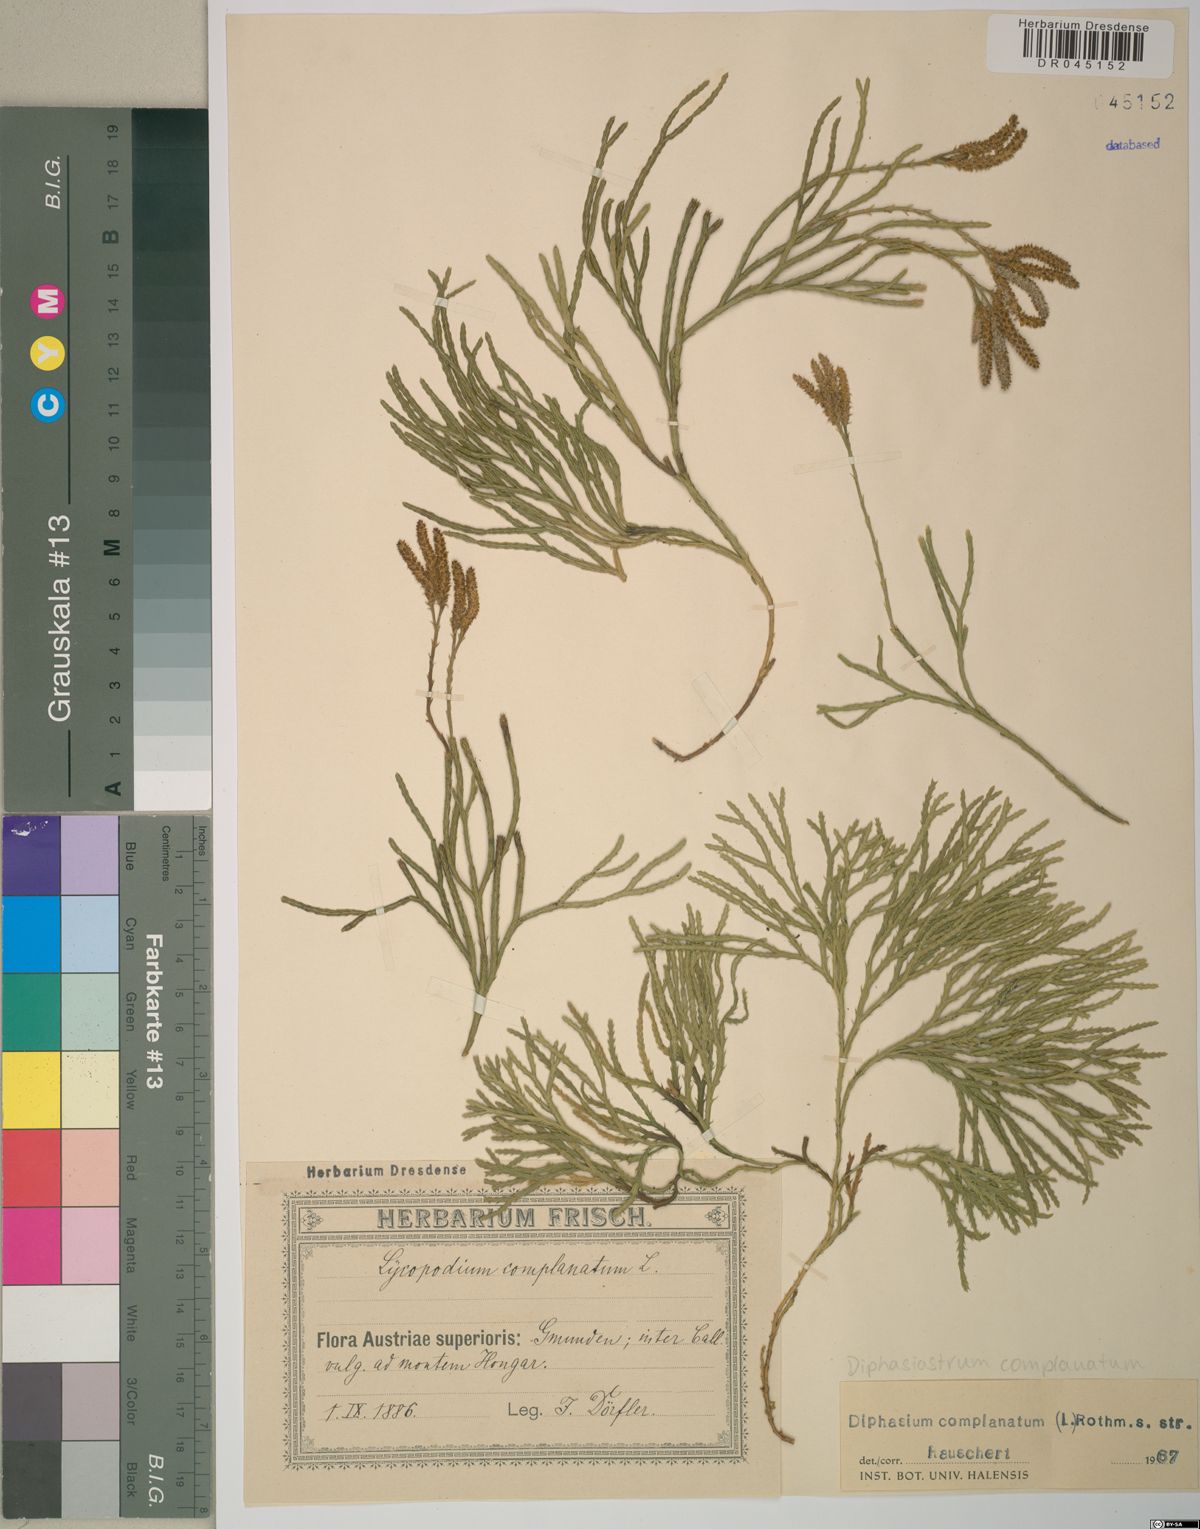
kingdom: Plantae
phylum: Tracheophyta
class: Lycopodiopsida
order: Lycopodiales
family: Lycopodiaceae
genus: Diphasiastrum
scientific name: Diphasiastrum complanatum
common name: Northern running-pine
